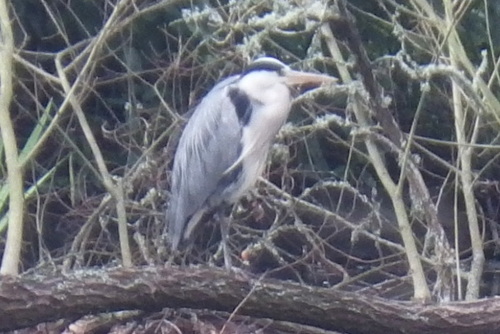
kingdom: Animalia
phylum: Chordata
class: Aves
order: Pelecaniformes
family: Ardeidae
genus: Ardea
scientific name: Ardea cinerea
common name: Grey heron
